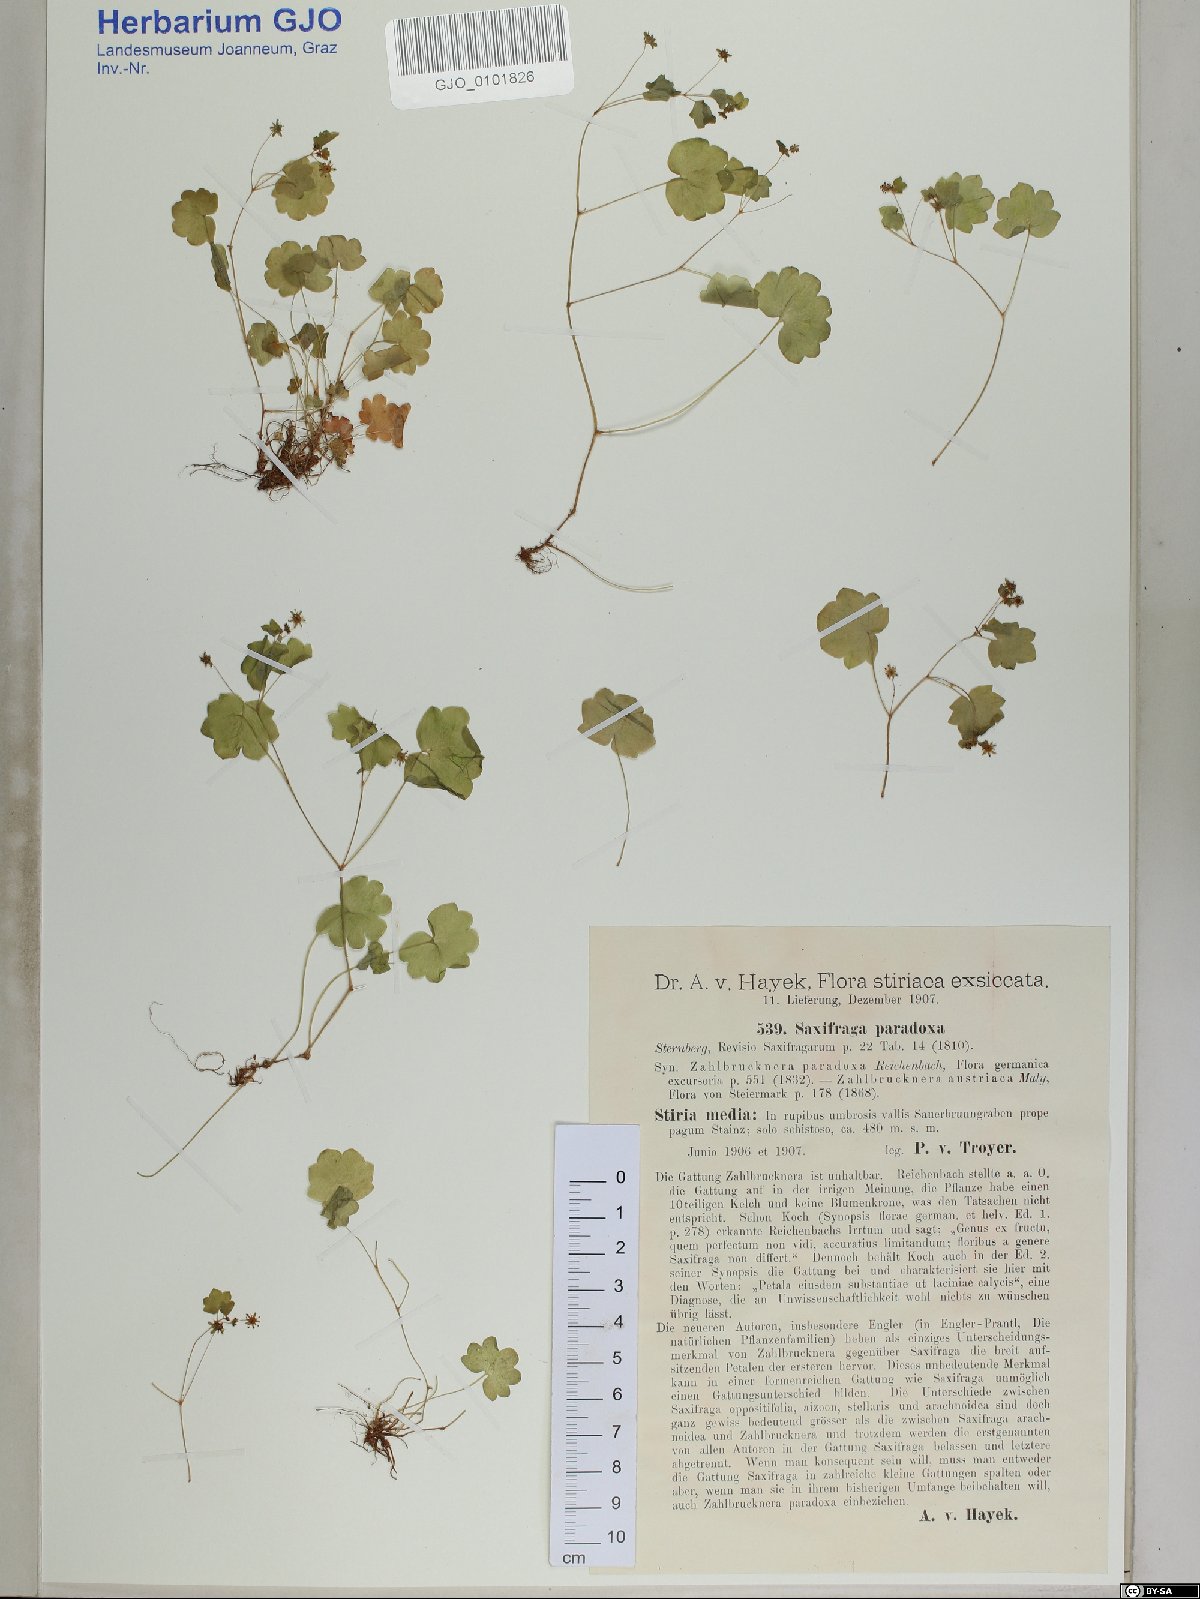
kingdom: Plantae
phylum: Tracheophyta
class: Magnoliopsida
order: Saxifragales
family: Saxifragaceae
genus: Saxifraga
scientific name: Saxifraga paradoxa
